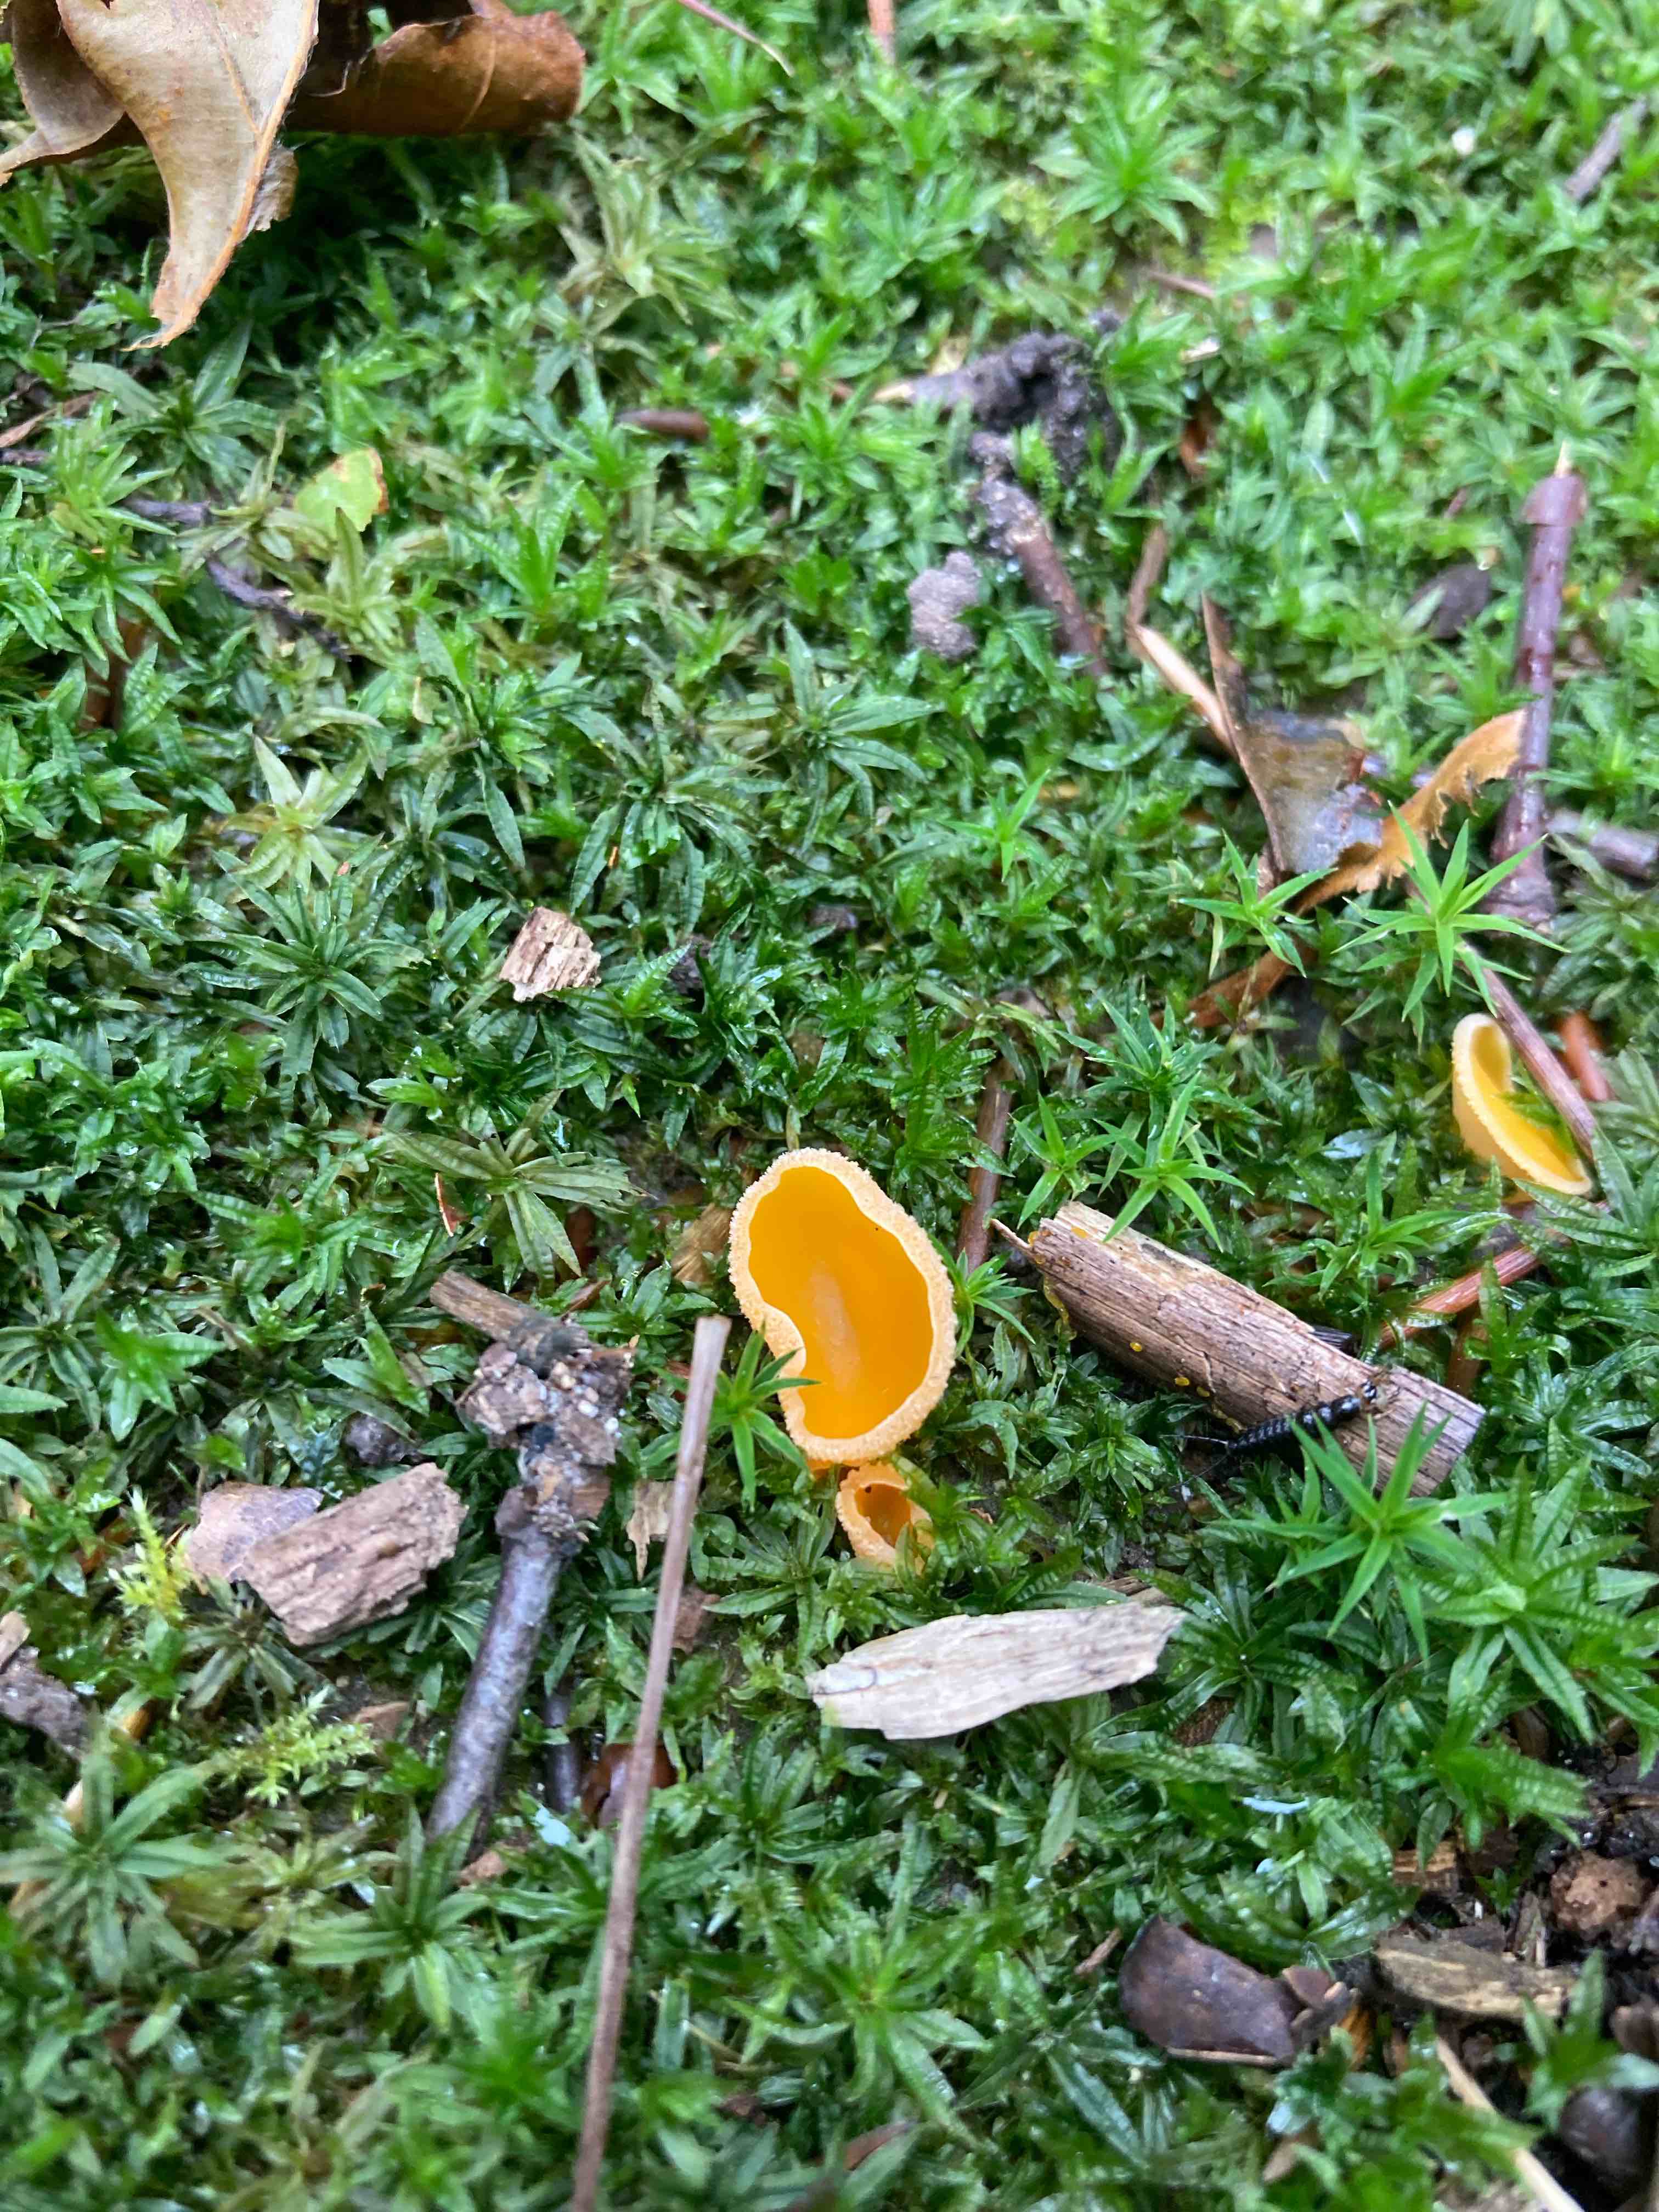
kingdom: Fungi
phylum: Ascomycota
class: Pezizomycetes
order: Pezizales
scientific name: Pezizales
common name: bægersvampordenen
